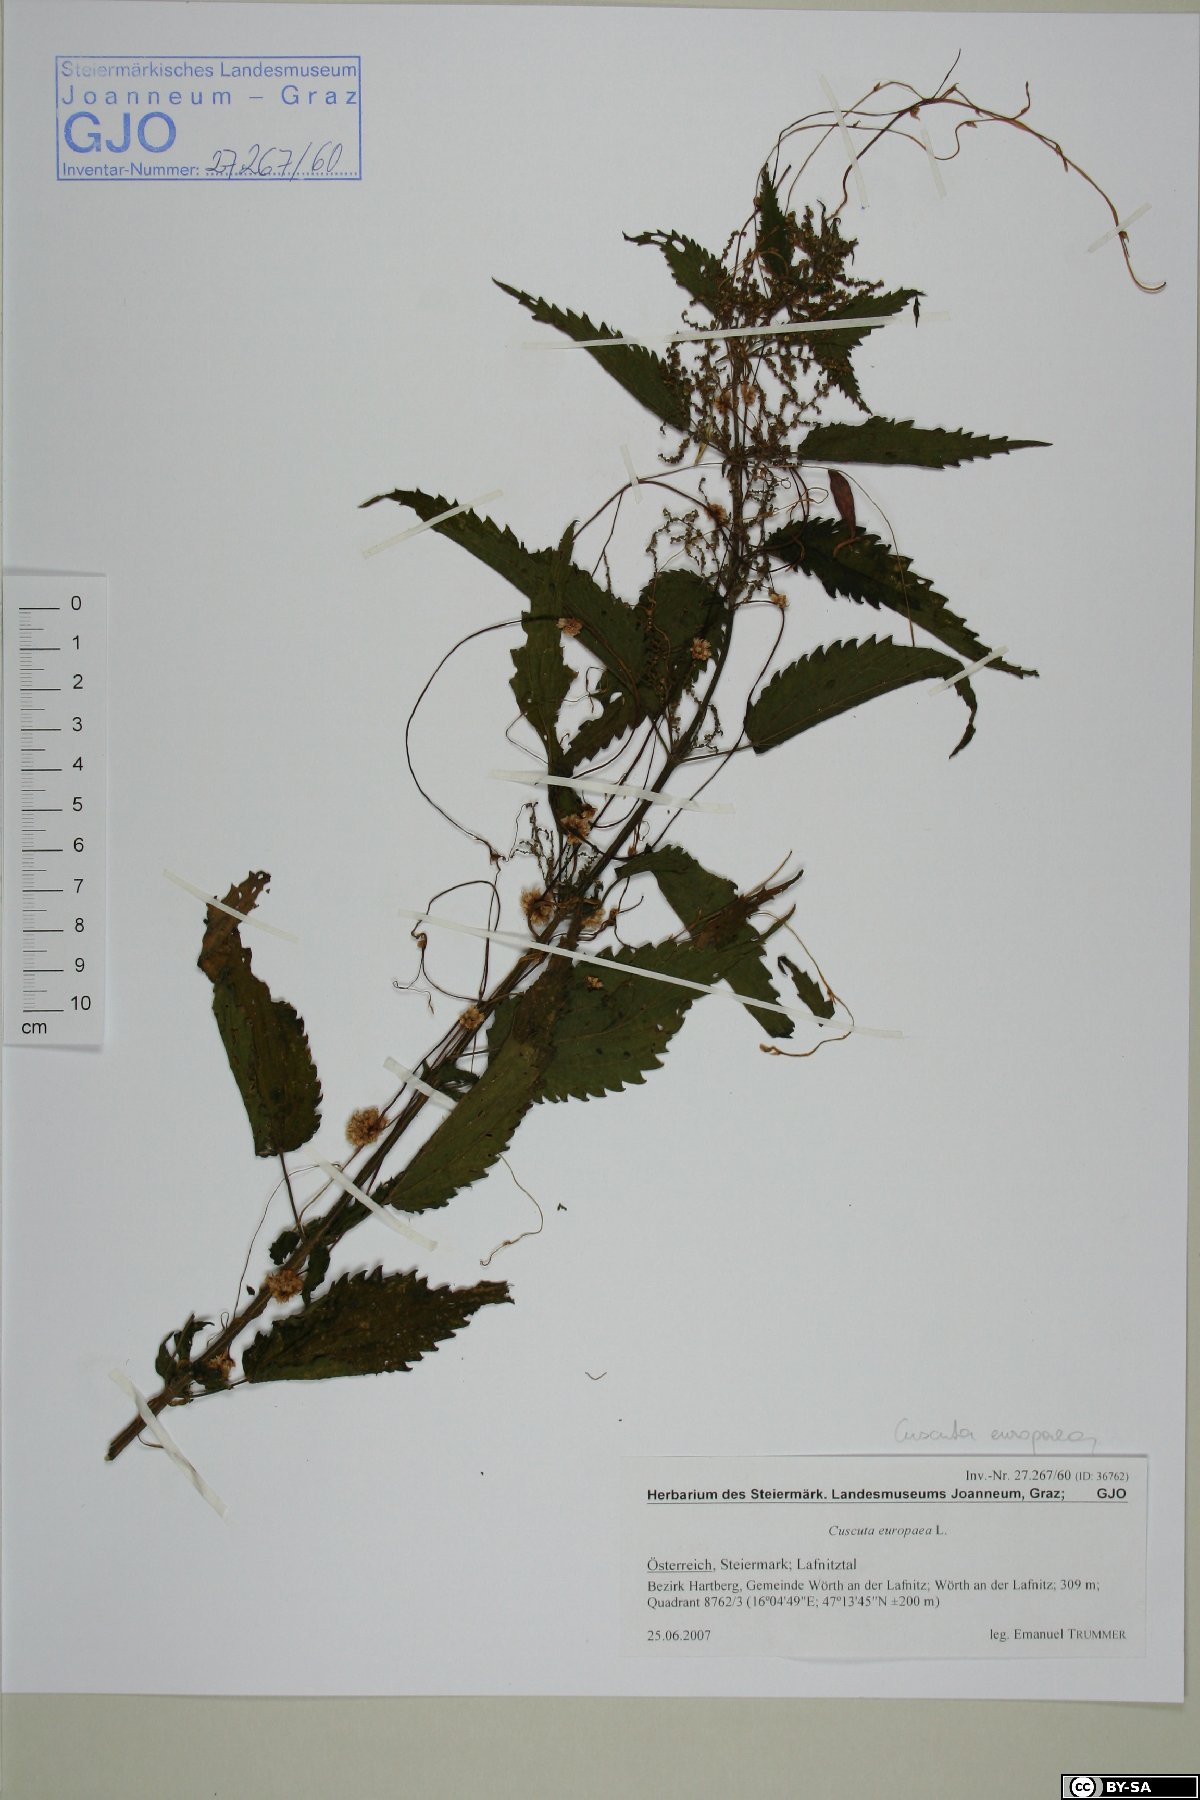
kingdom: Plantae
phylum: Tracheophyta
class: Magnoliopsida
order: Solanales
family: Convolvulaceae
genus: Cuscuta
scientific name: Cuscuta europaea
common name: Greater dodder
